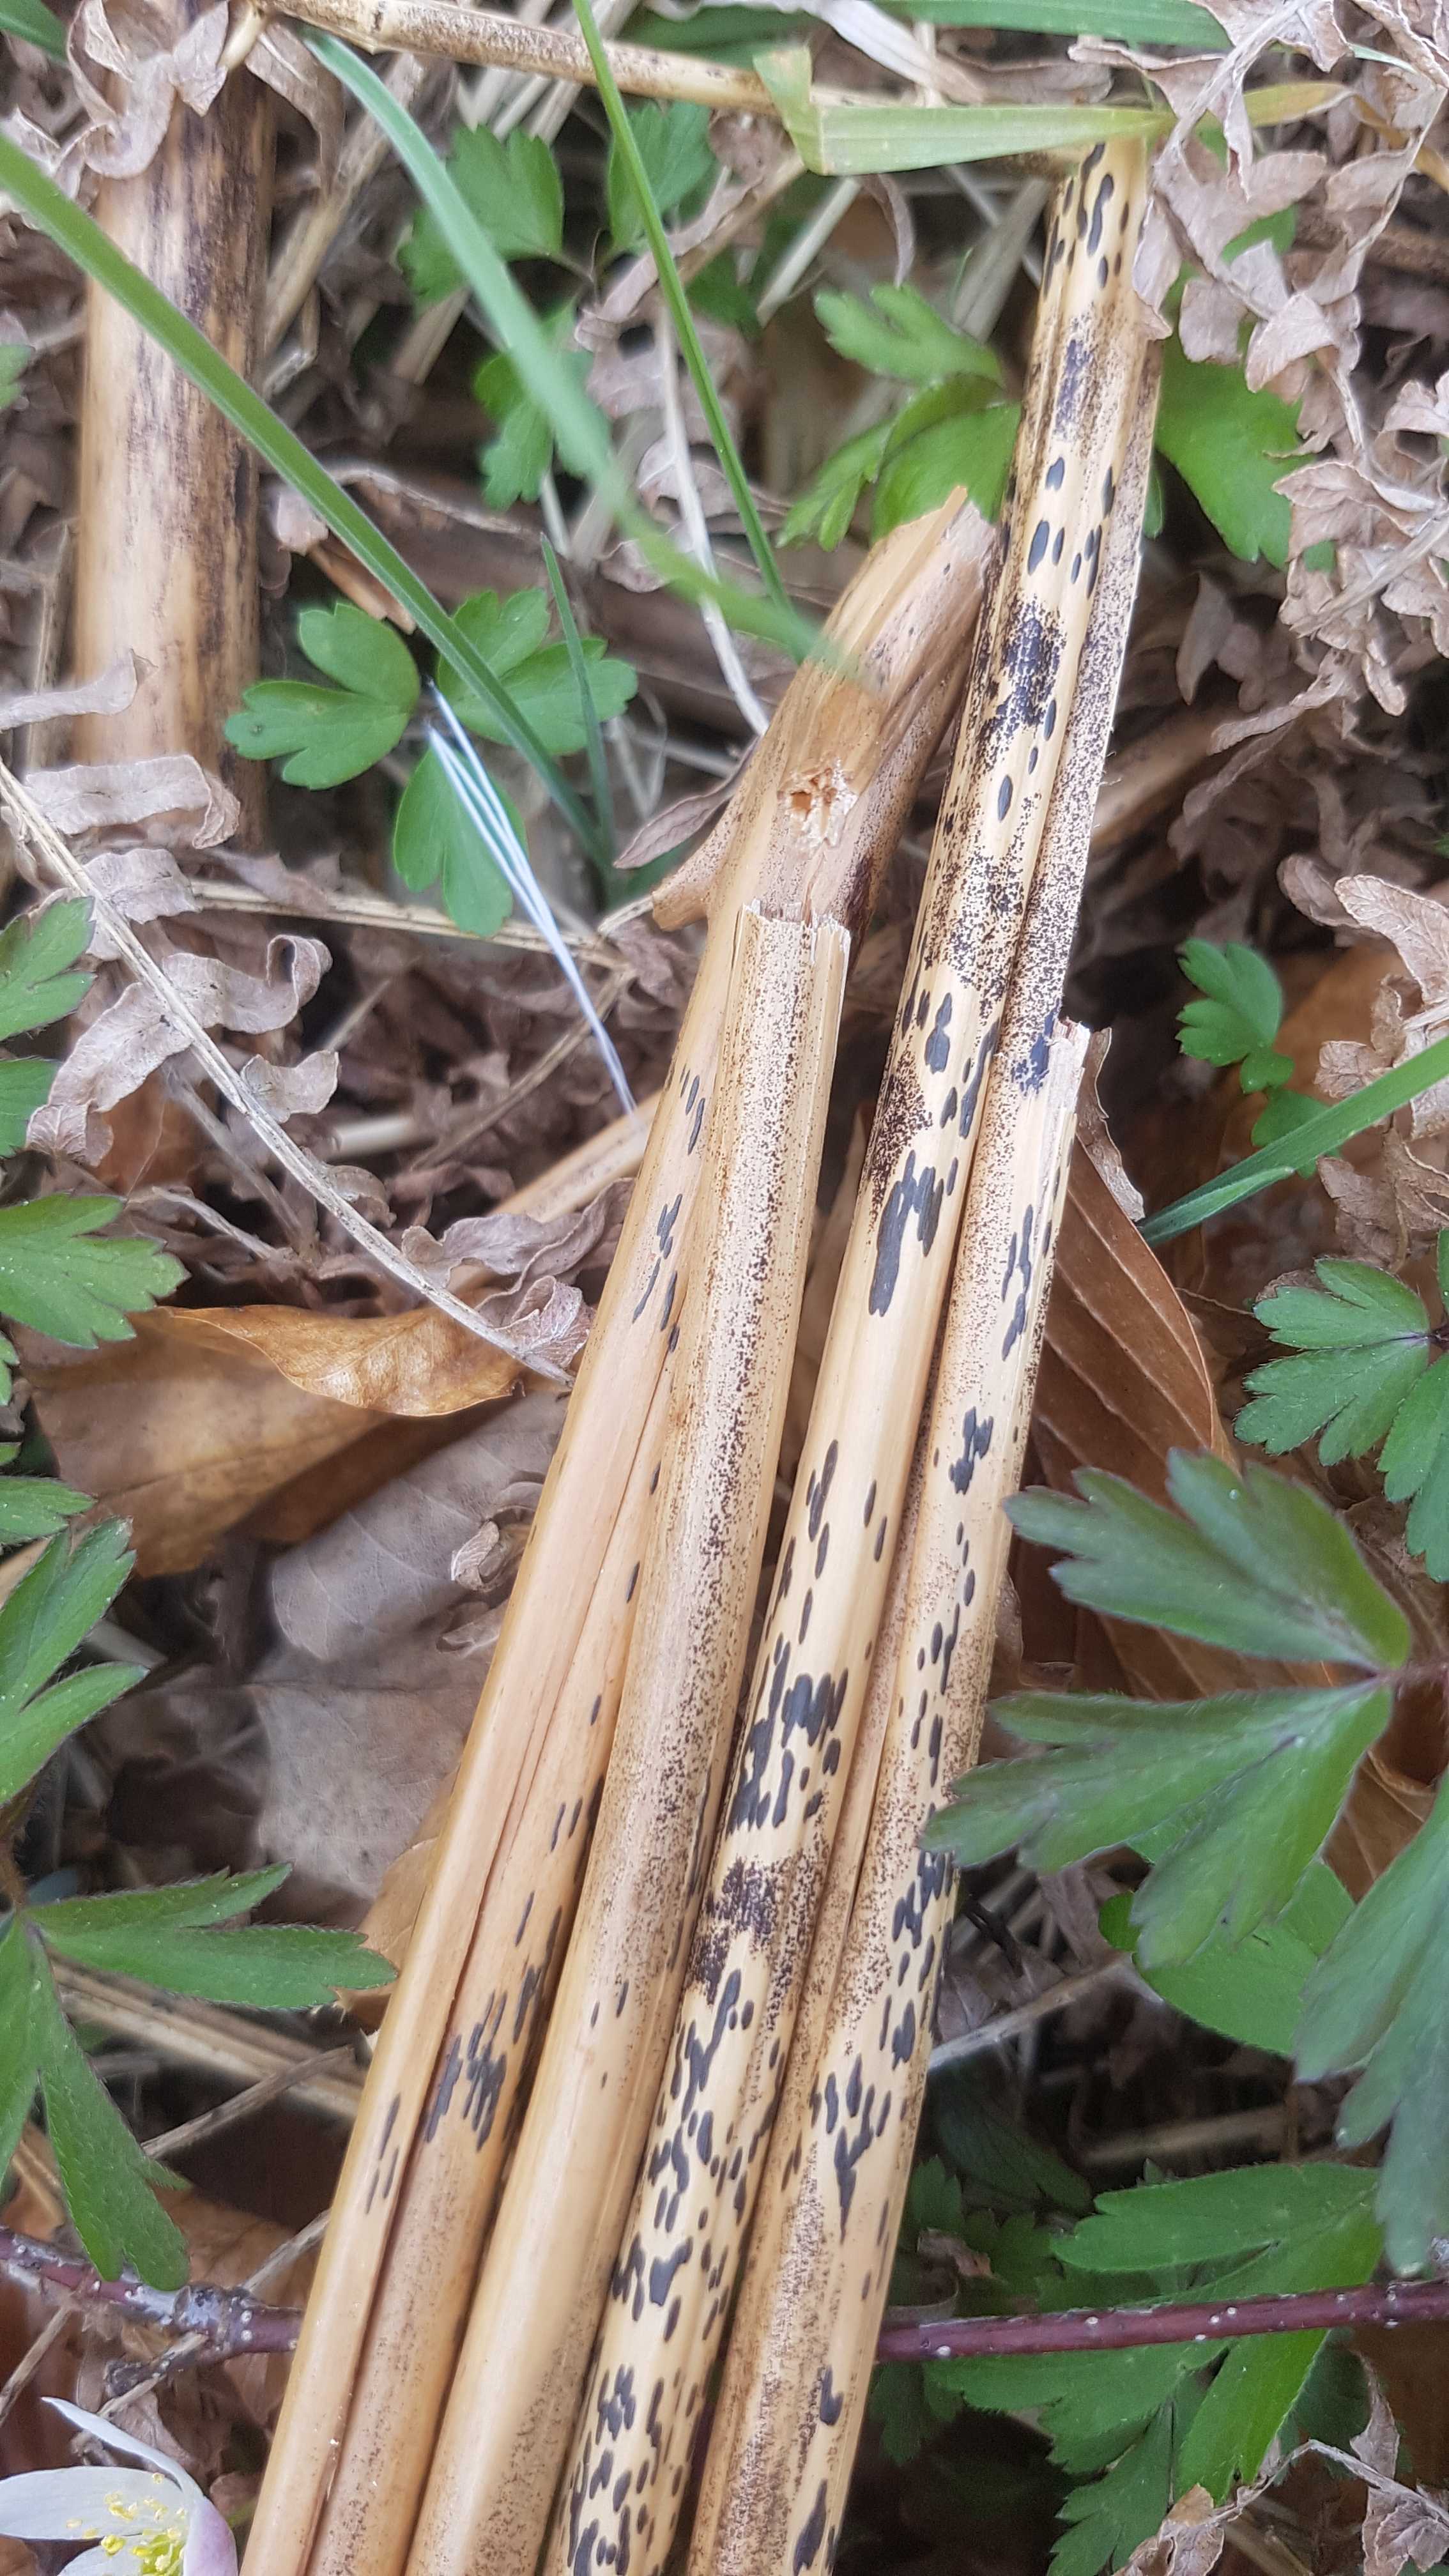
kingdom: Fungi
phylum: Ascomycota
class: Dothideomycetes
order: Pleosporales
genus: Rhopographus
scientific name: Rhopographus filicinus
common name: Bracken map
